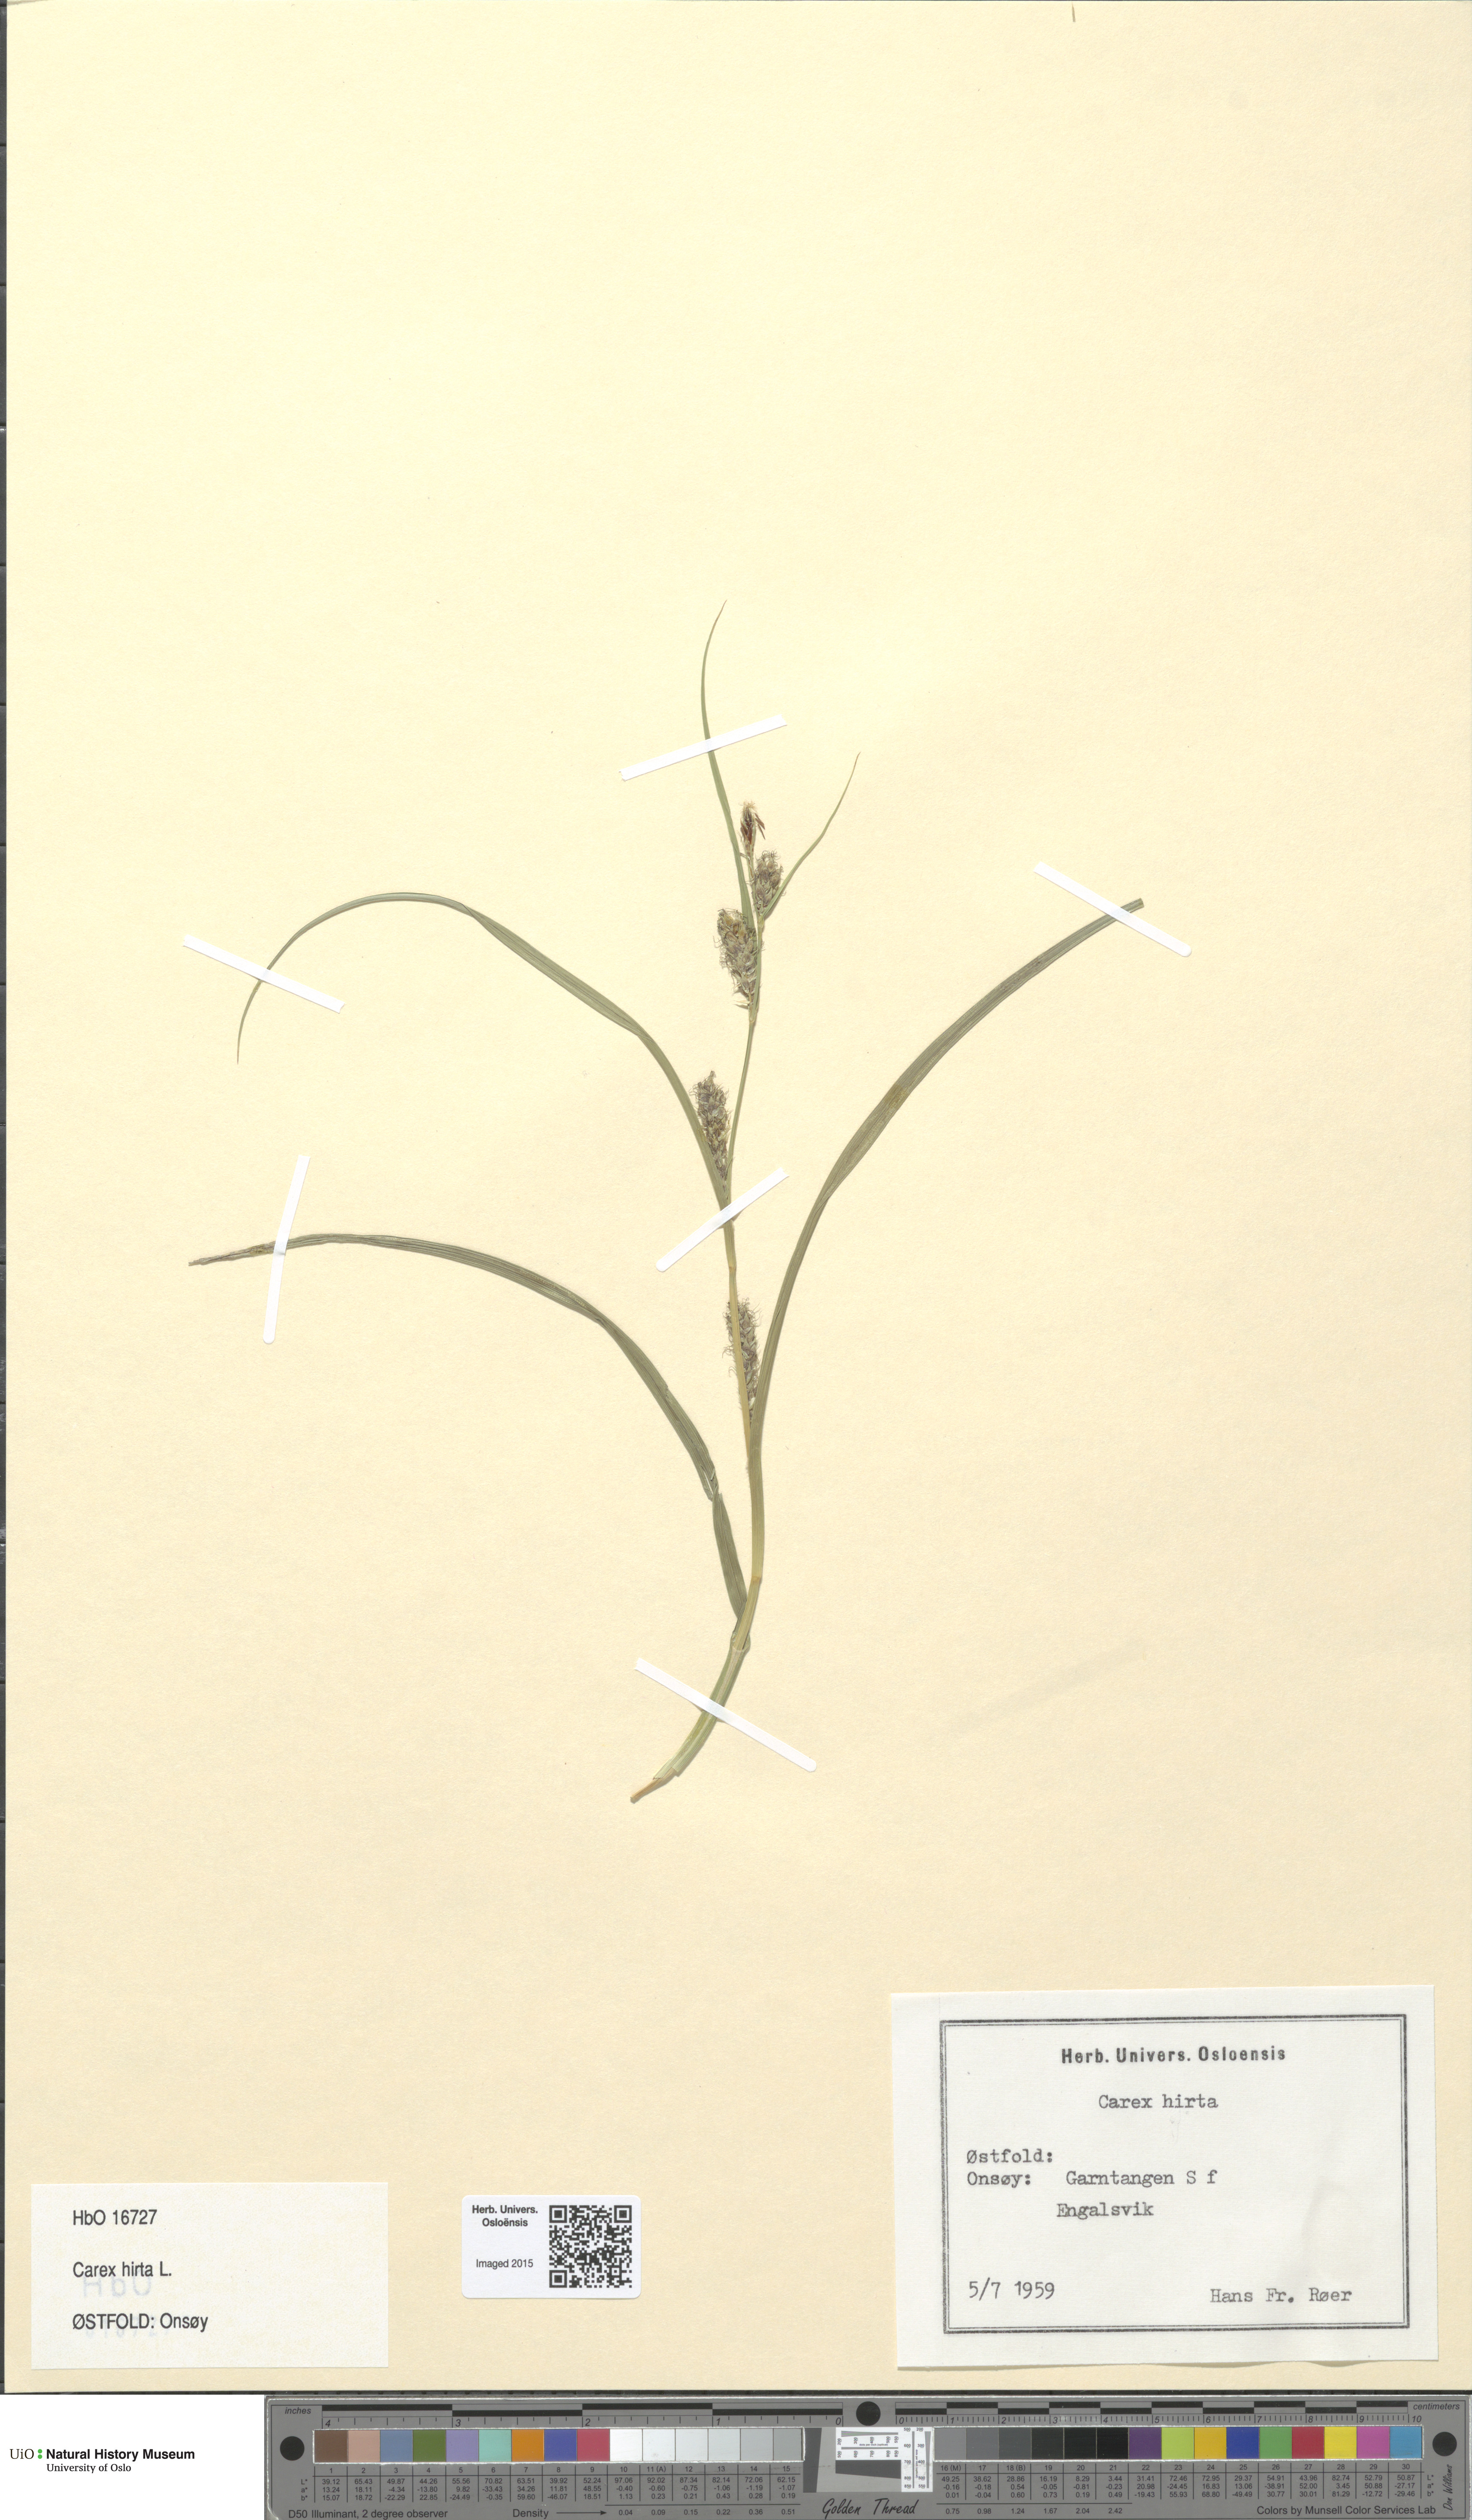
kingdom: Plantae
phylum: Tracheophyta
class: Liliopsida
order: Poales
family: Cyperaceae
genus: Carex
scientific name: Carex hirta
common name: Hairy sedge
